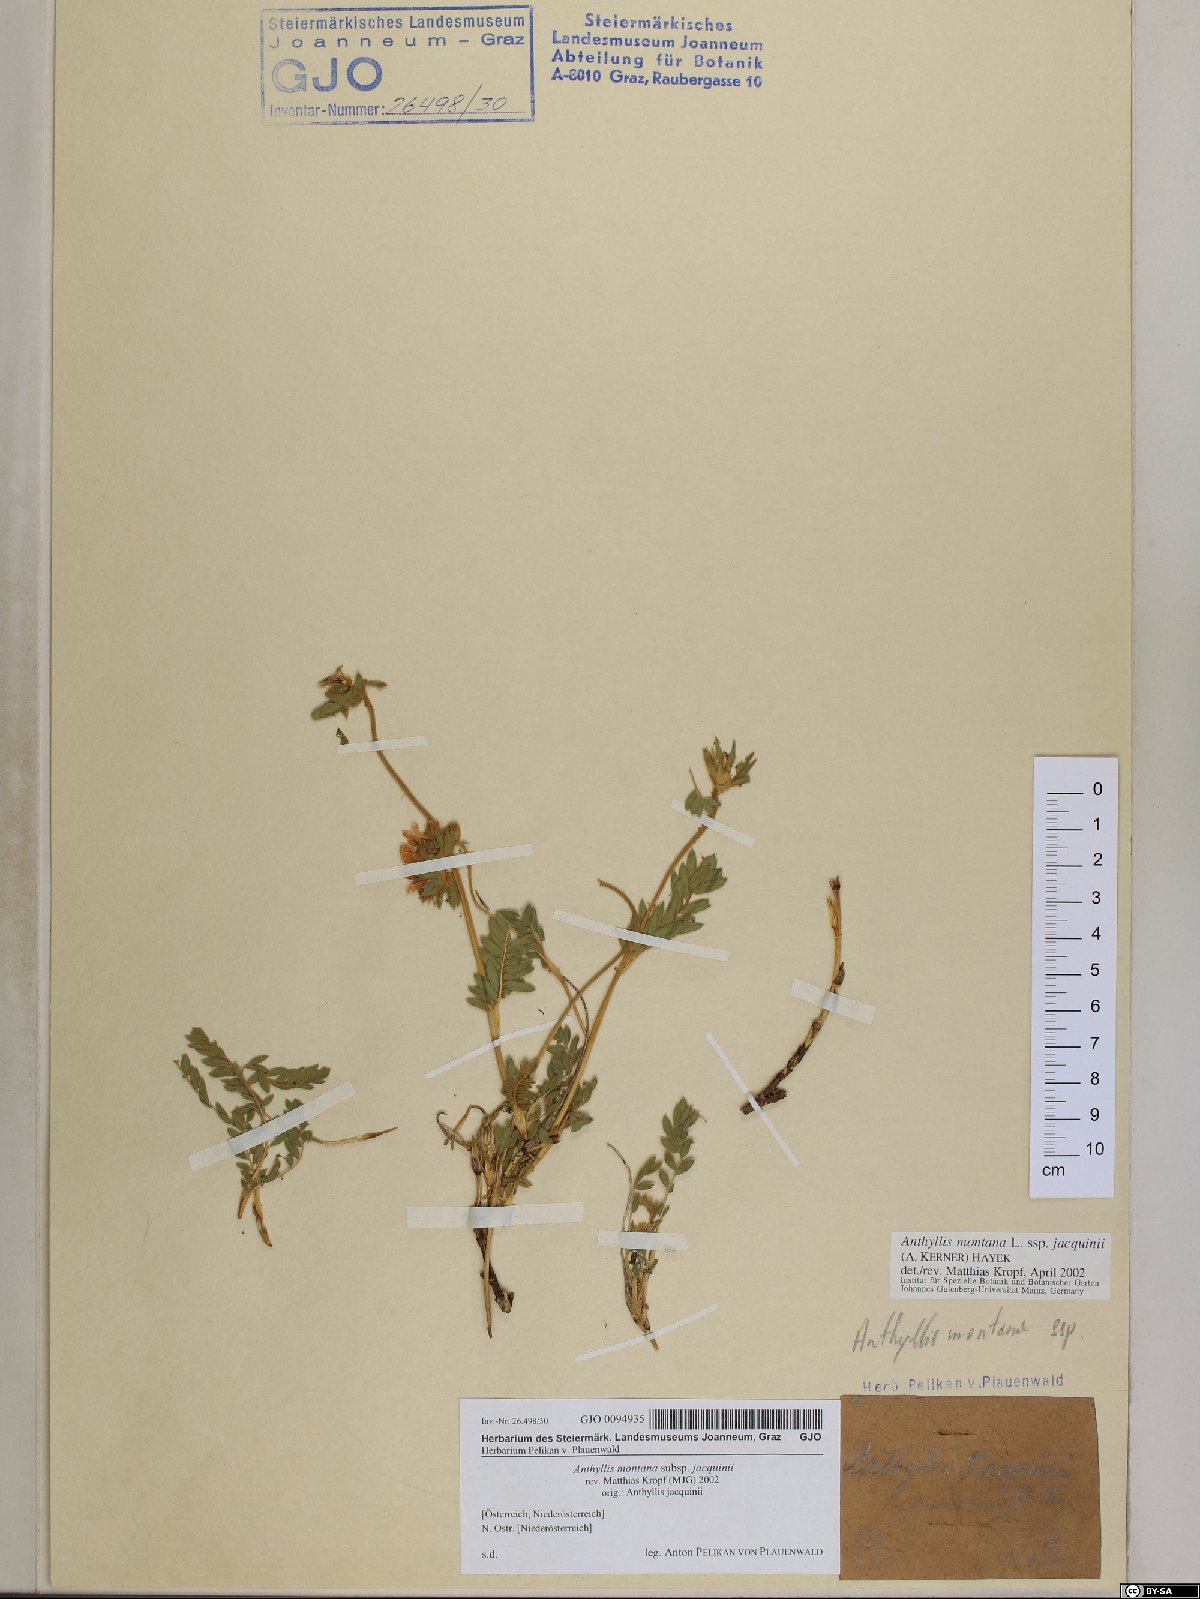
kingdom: Plantae
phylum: Tracheophyta
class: Magnoliopsida
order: Fabales
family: Fabaceae
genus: Anthyllis
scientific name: Anthyllis montana
